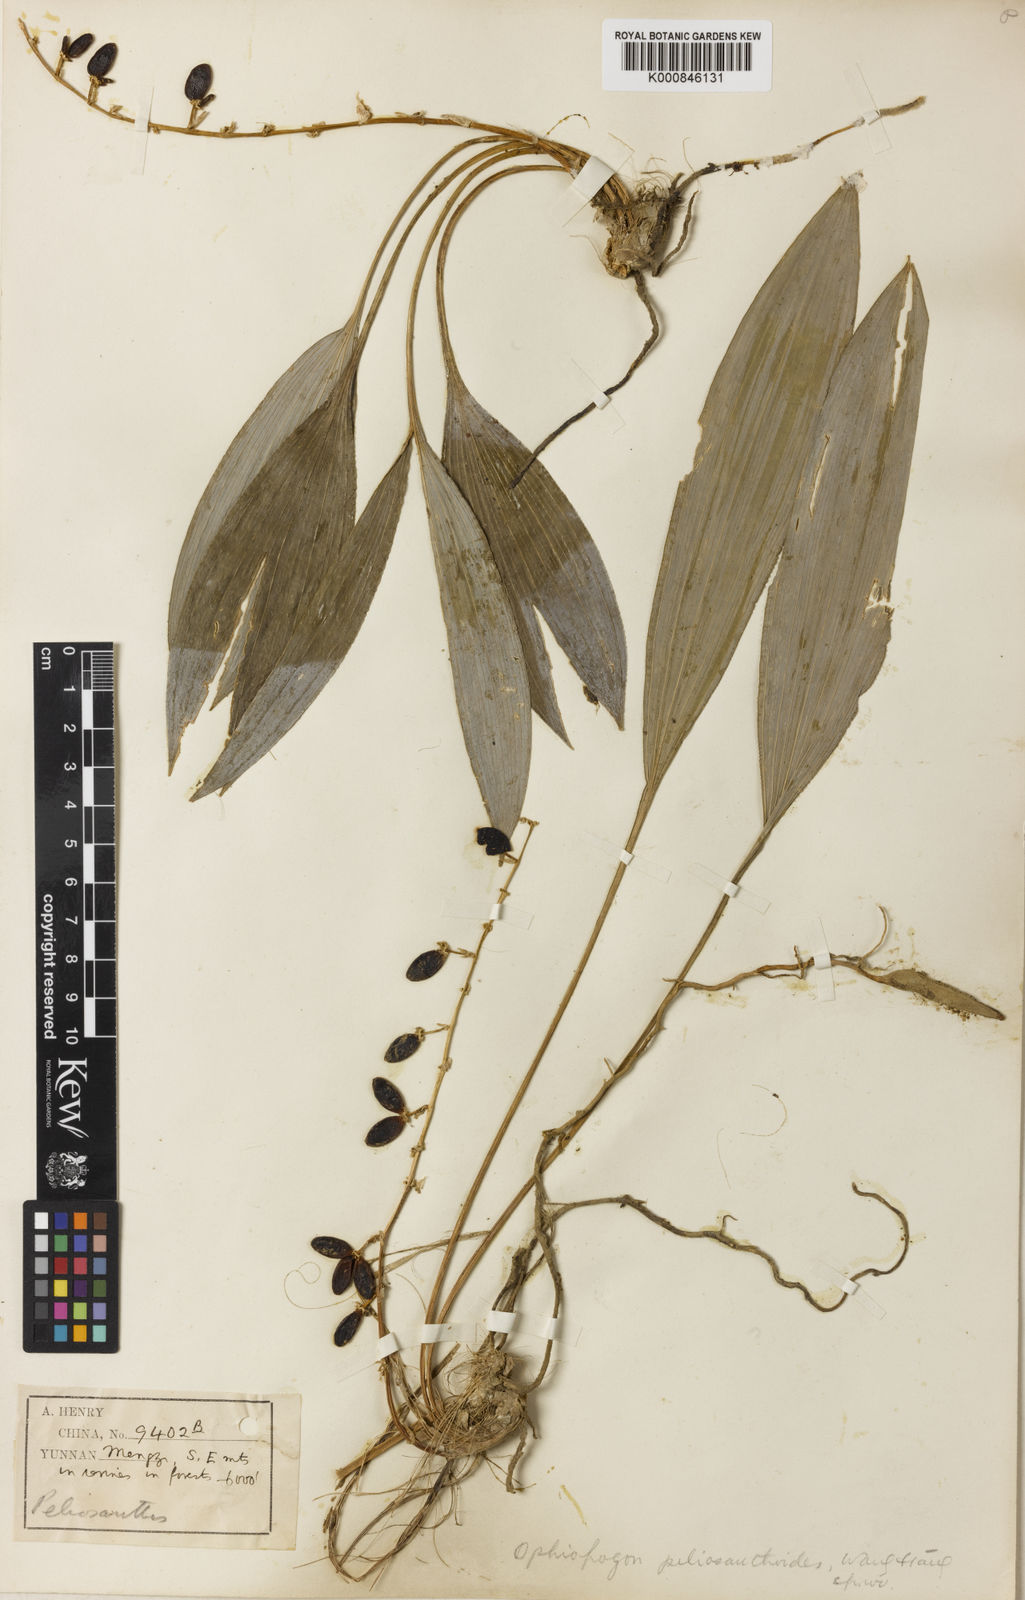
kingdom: Plantae
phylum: Tracheophyta
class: Liliopsida
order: Asparagales
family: Asparagaceae
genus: Ophiopogon
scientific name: Ophiopogon peliosanthoides
